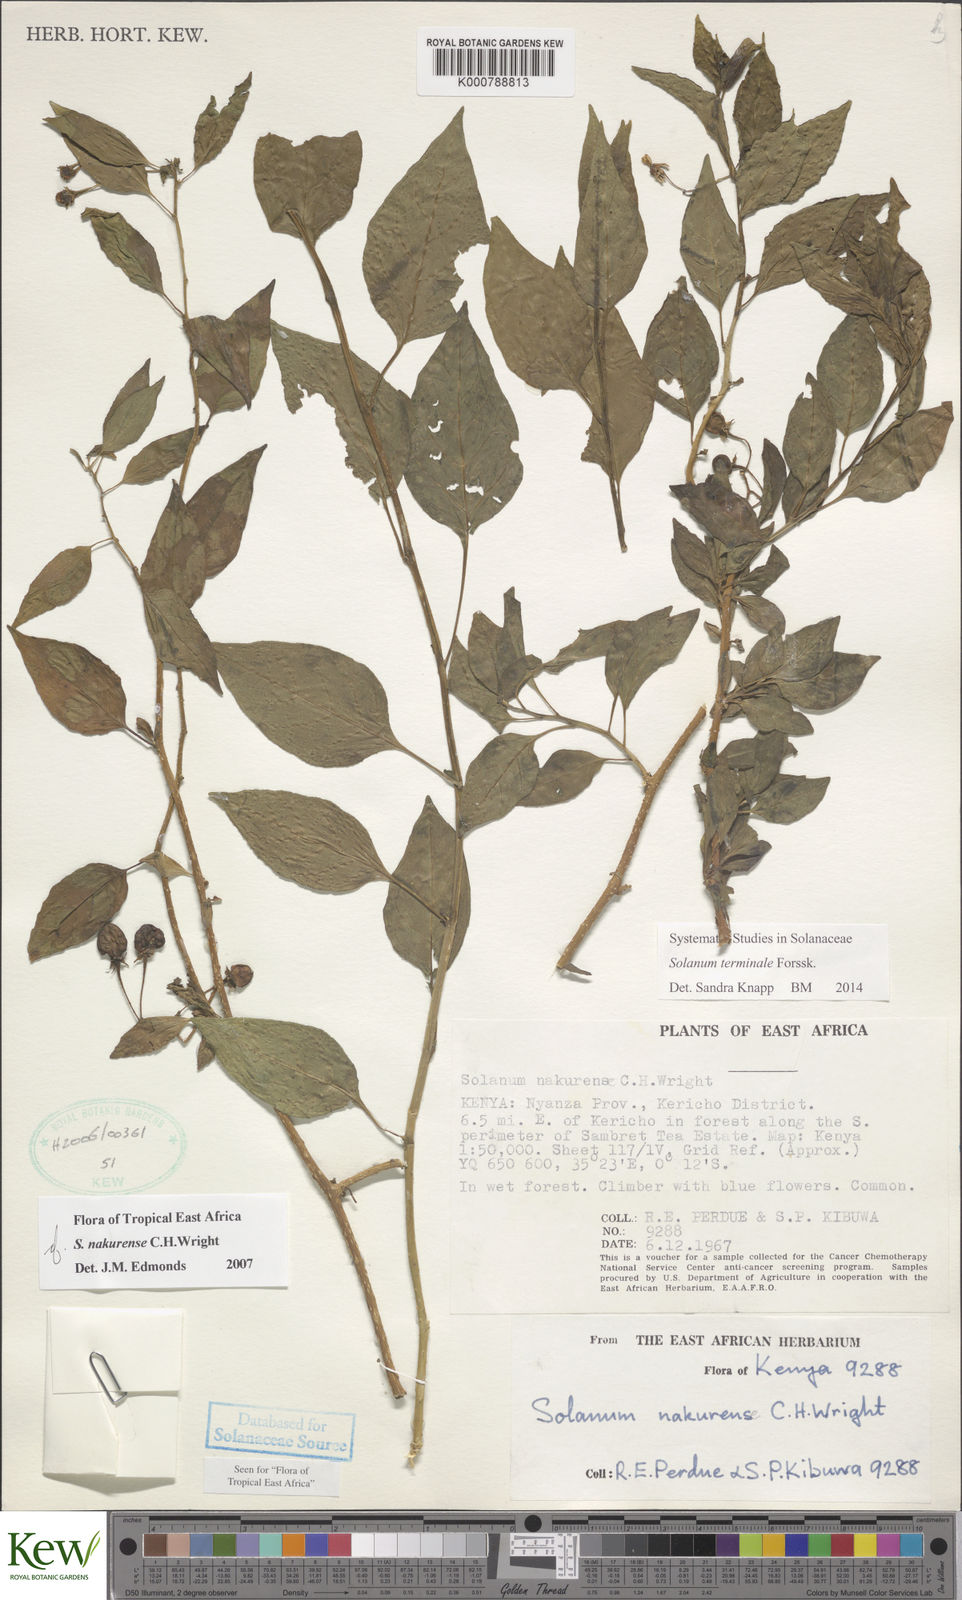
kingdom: Plantae
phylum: Tracheophyta
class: Magnoliopsida
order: Solanales
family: Solanaceae
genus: Solanum
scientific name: Solanum nakurense
